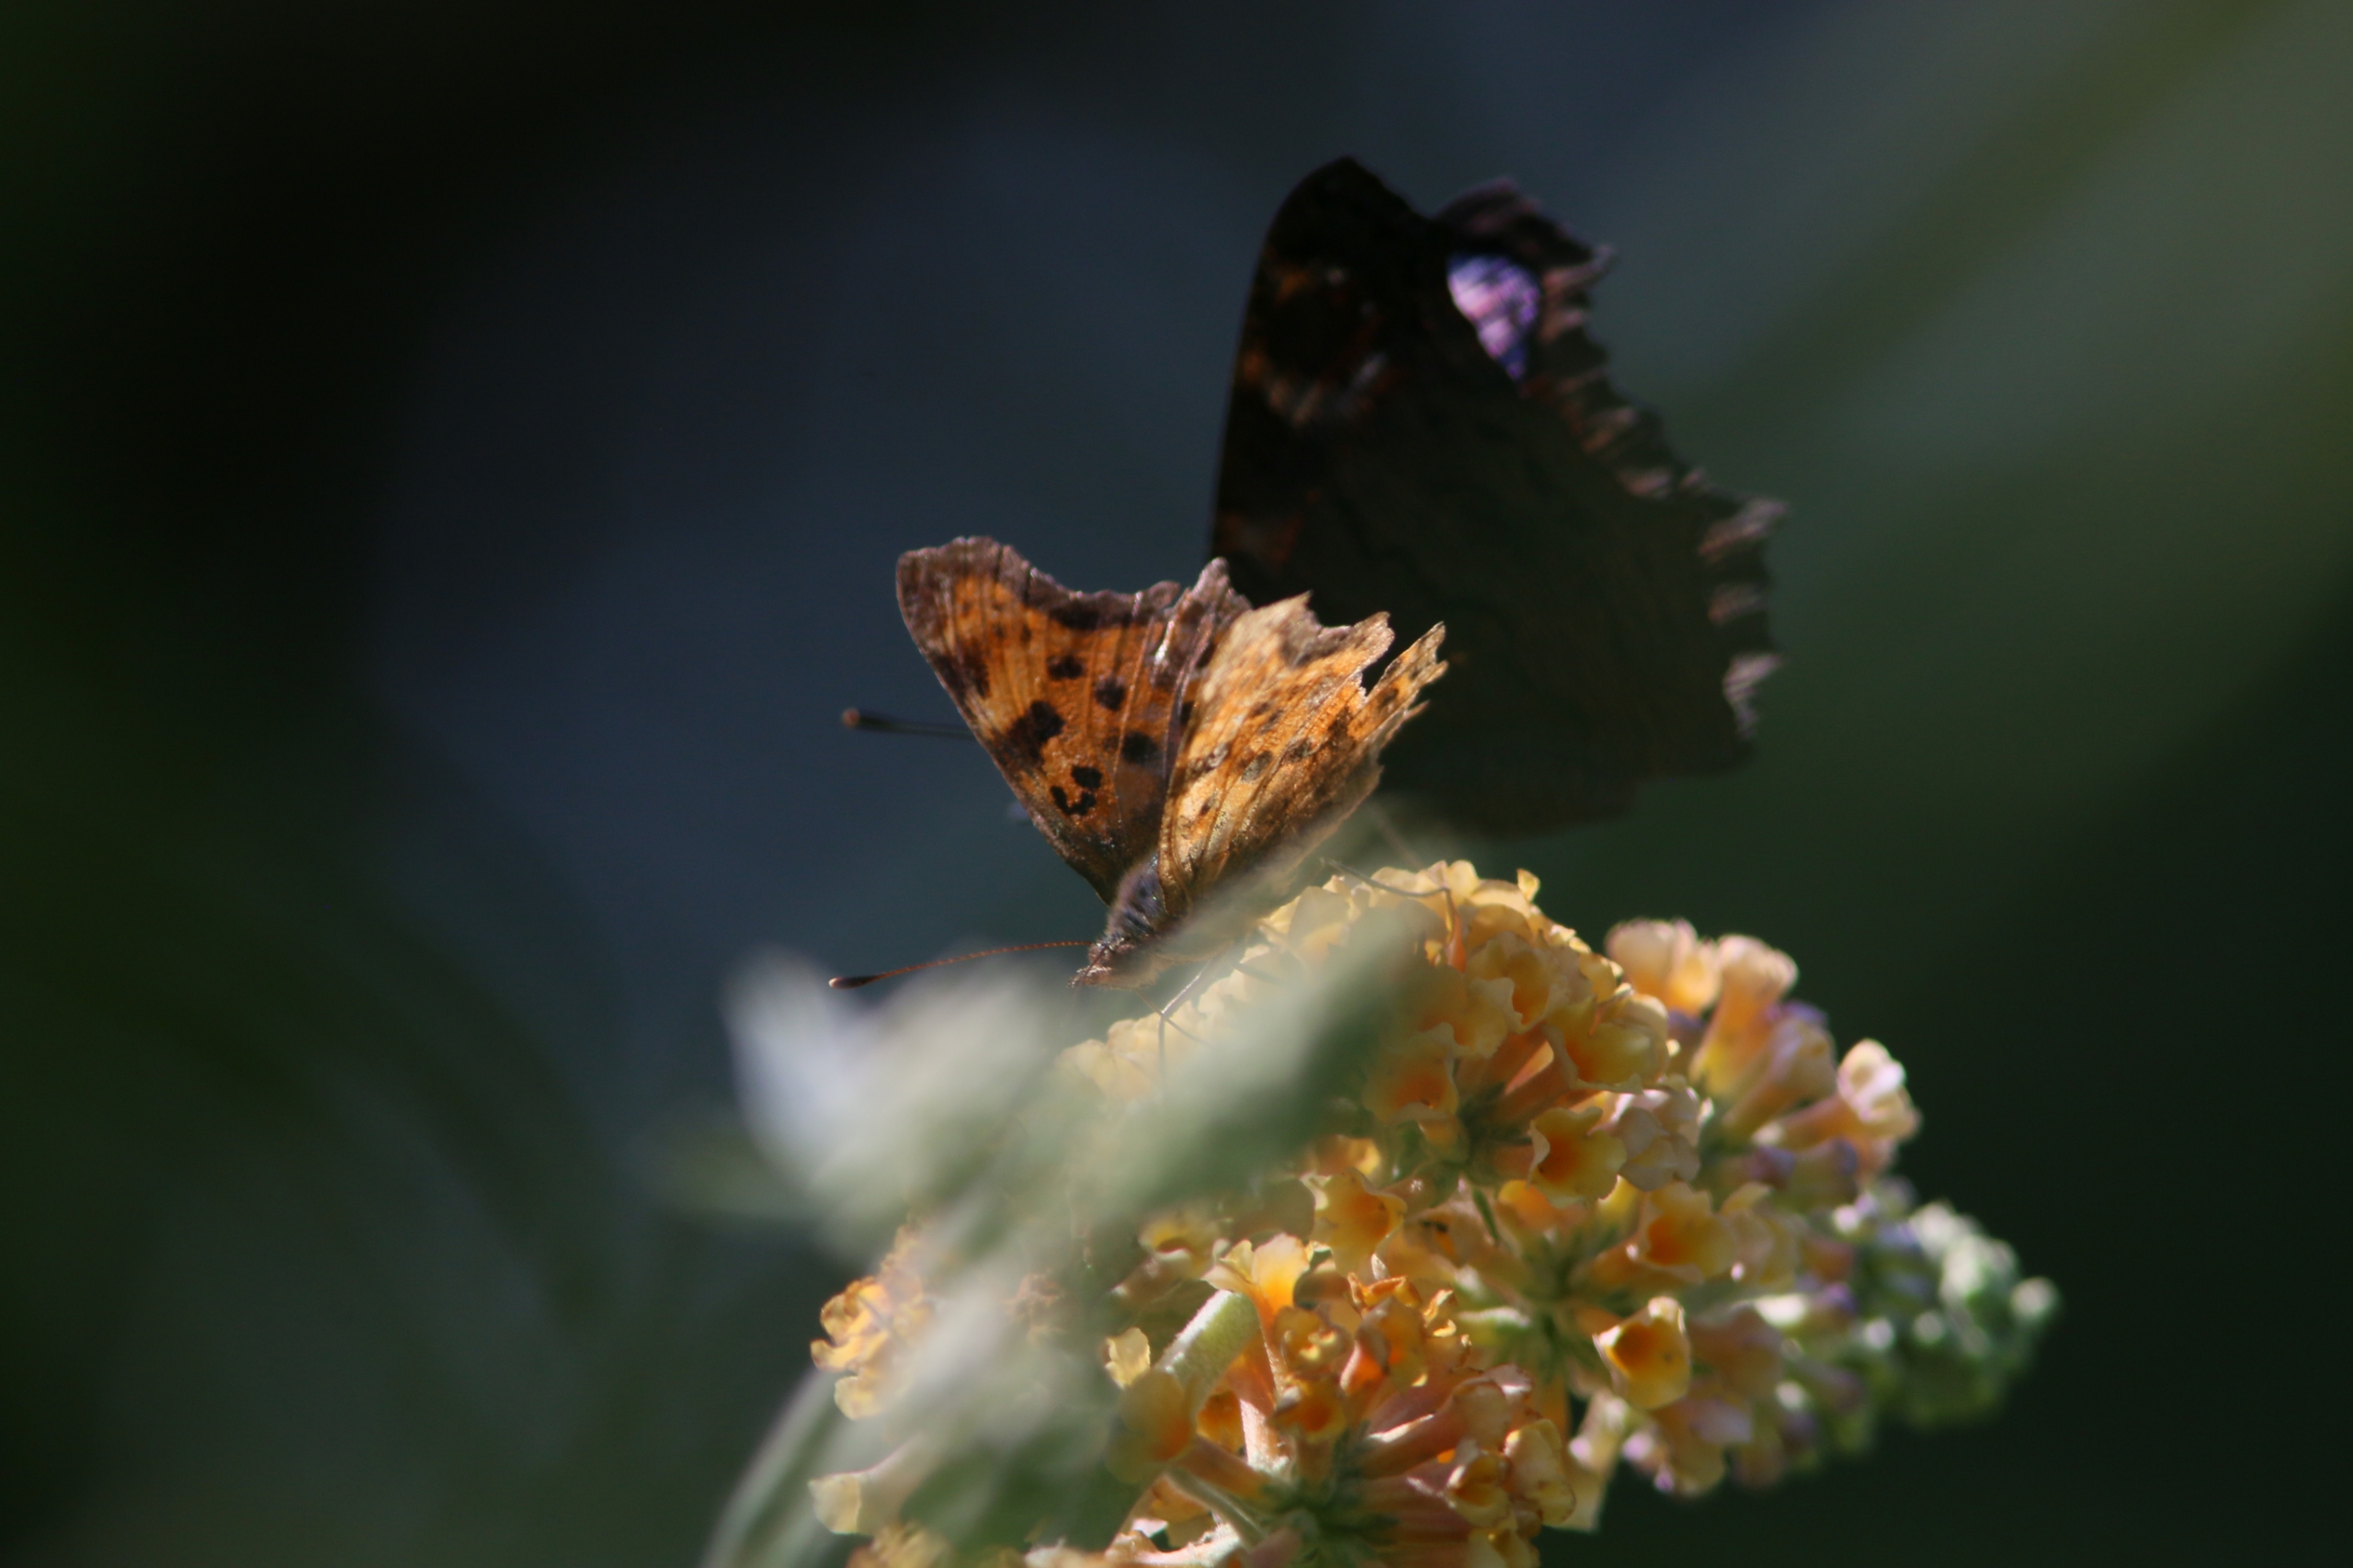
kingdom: Animalia
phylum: Arthropoda
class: Insecta
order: Lepidoptera
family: Nymphalidae
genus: Polygonia
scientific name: Polygonia c-album
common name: Det hvide C
